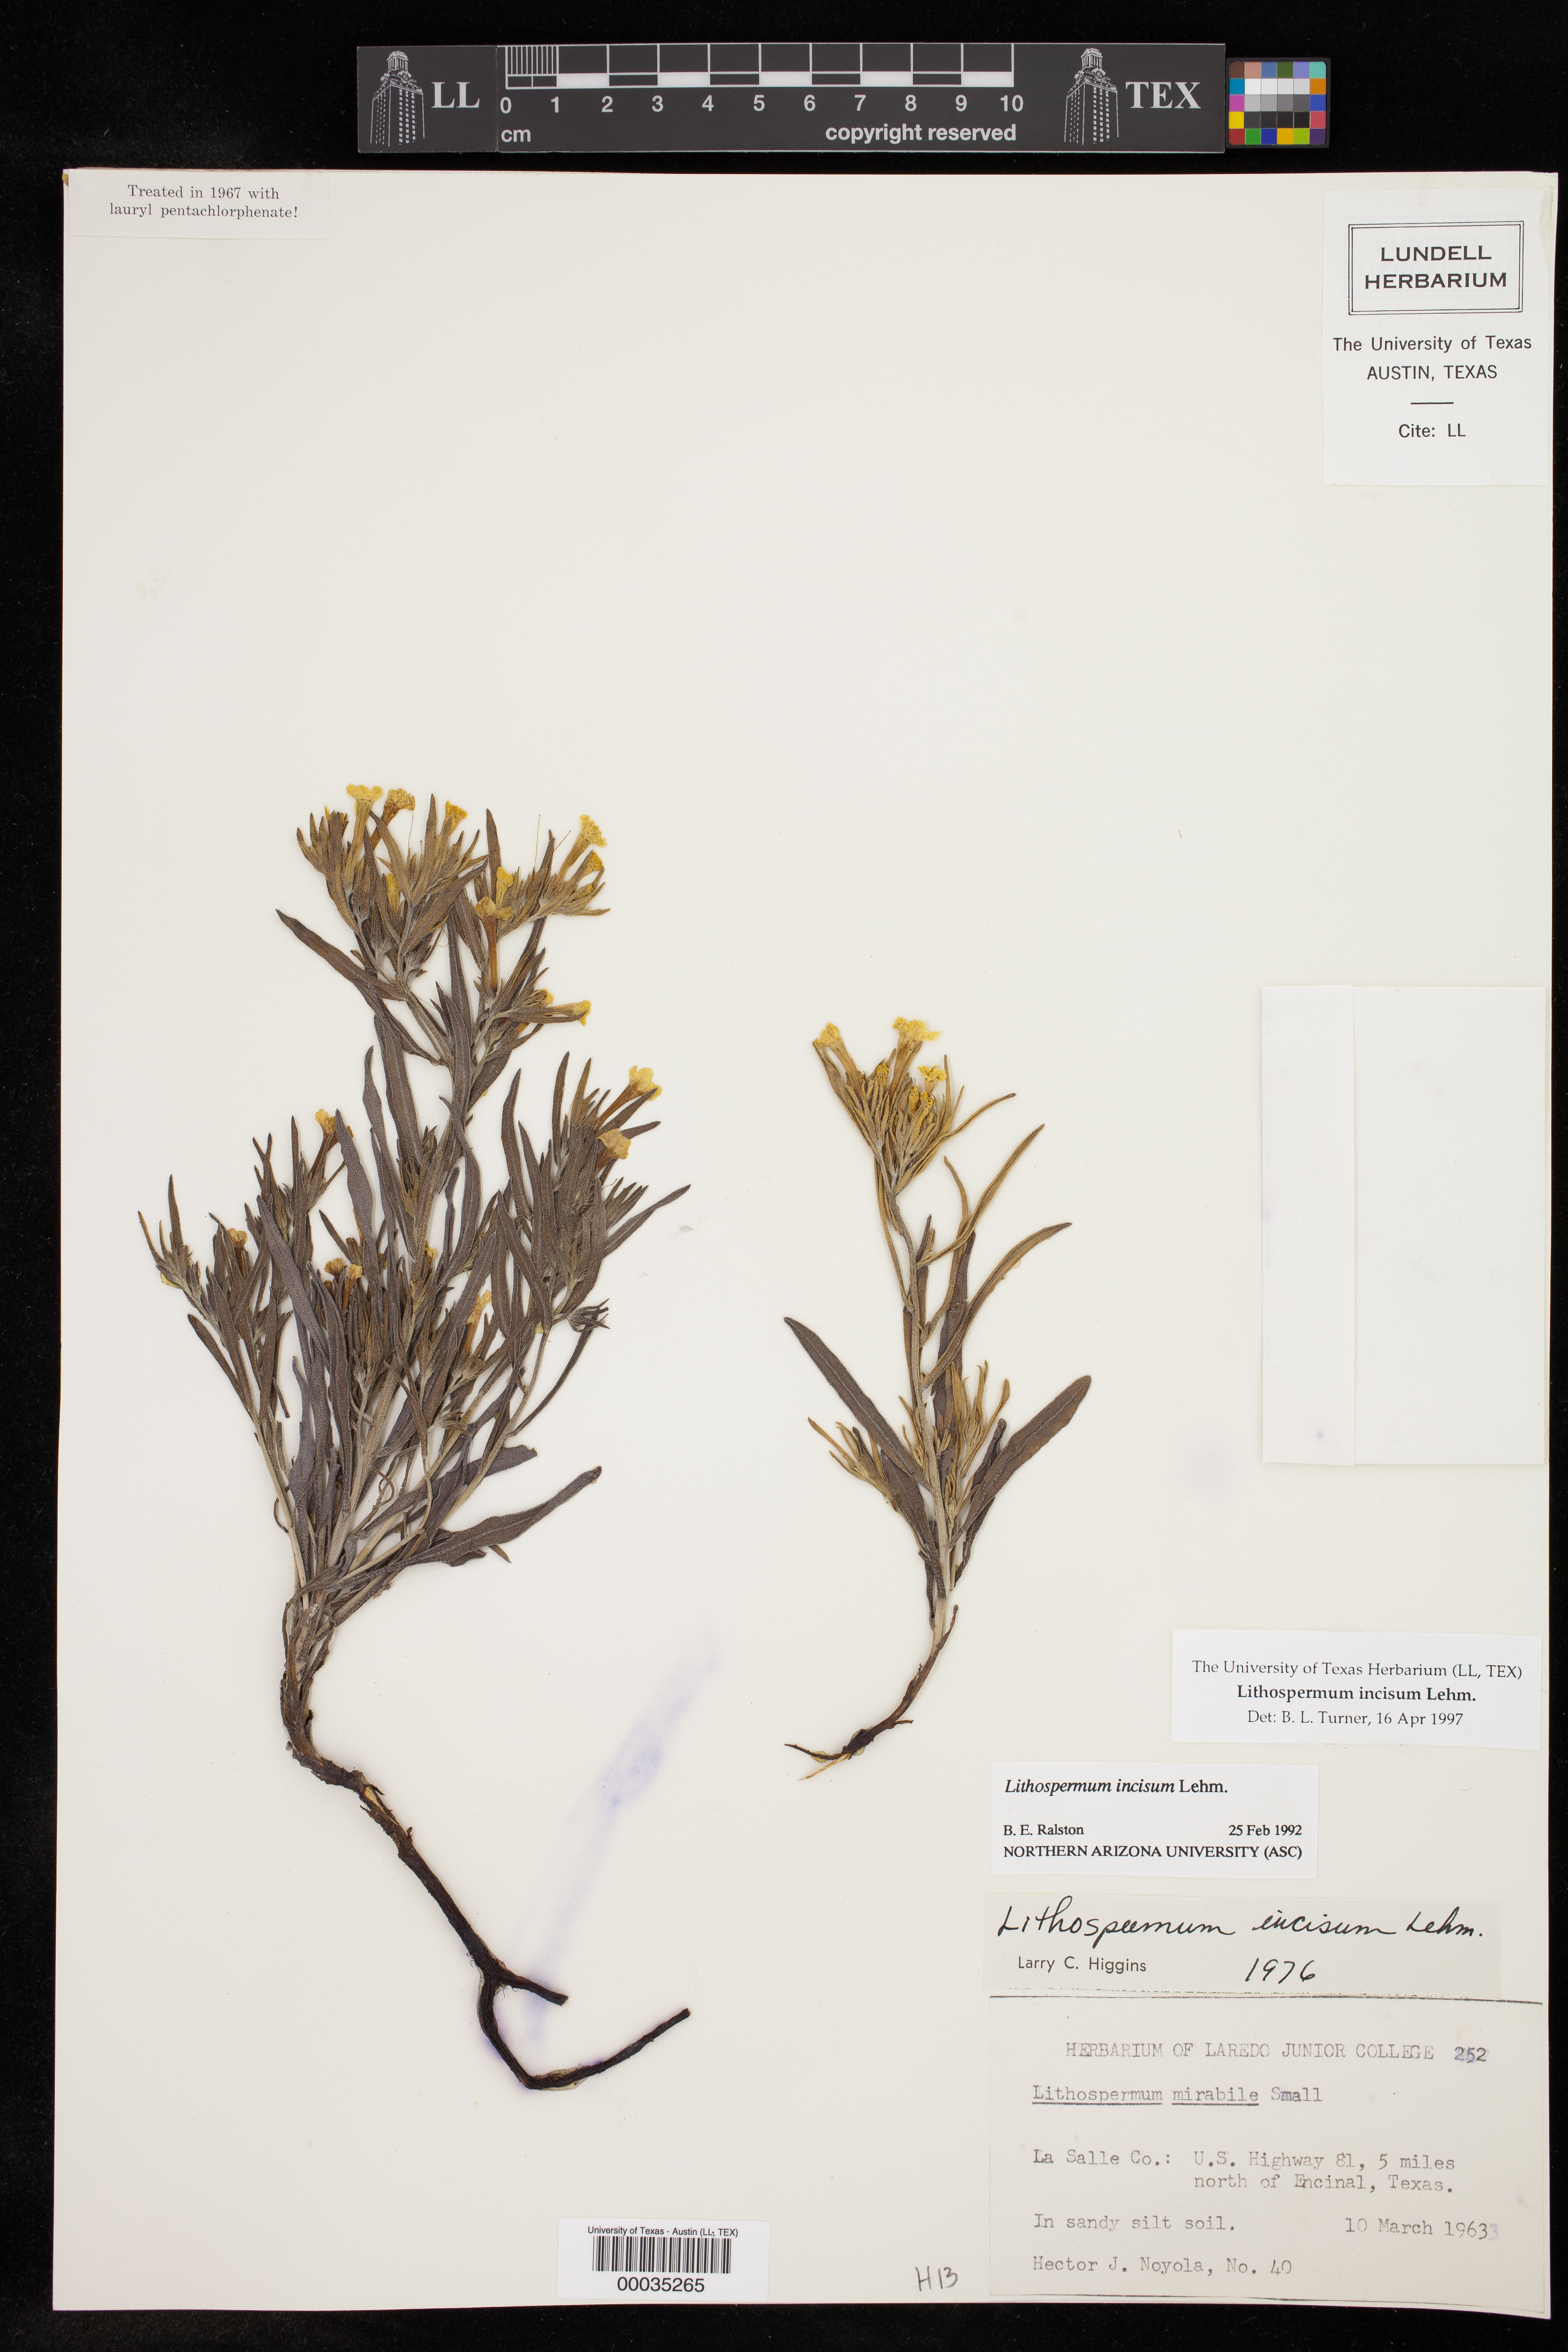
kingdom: Plantae
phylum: Tracheophyta
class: Magnoliopsida
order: Boraginales
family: Boraginaceae
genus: Lithospermum
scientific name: Lithospermum incisum
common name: Fringed gromwell
